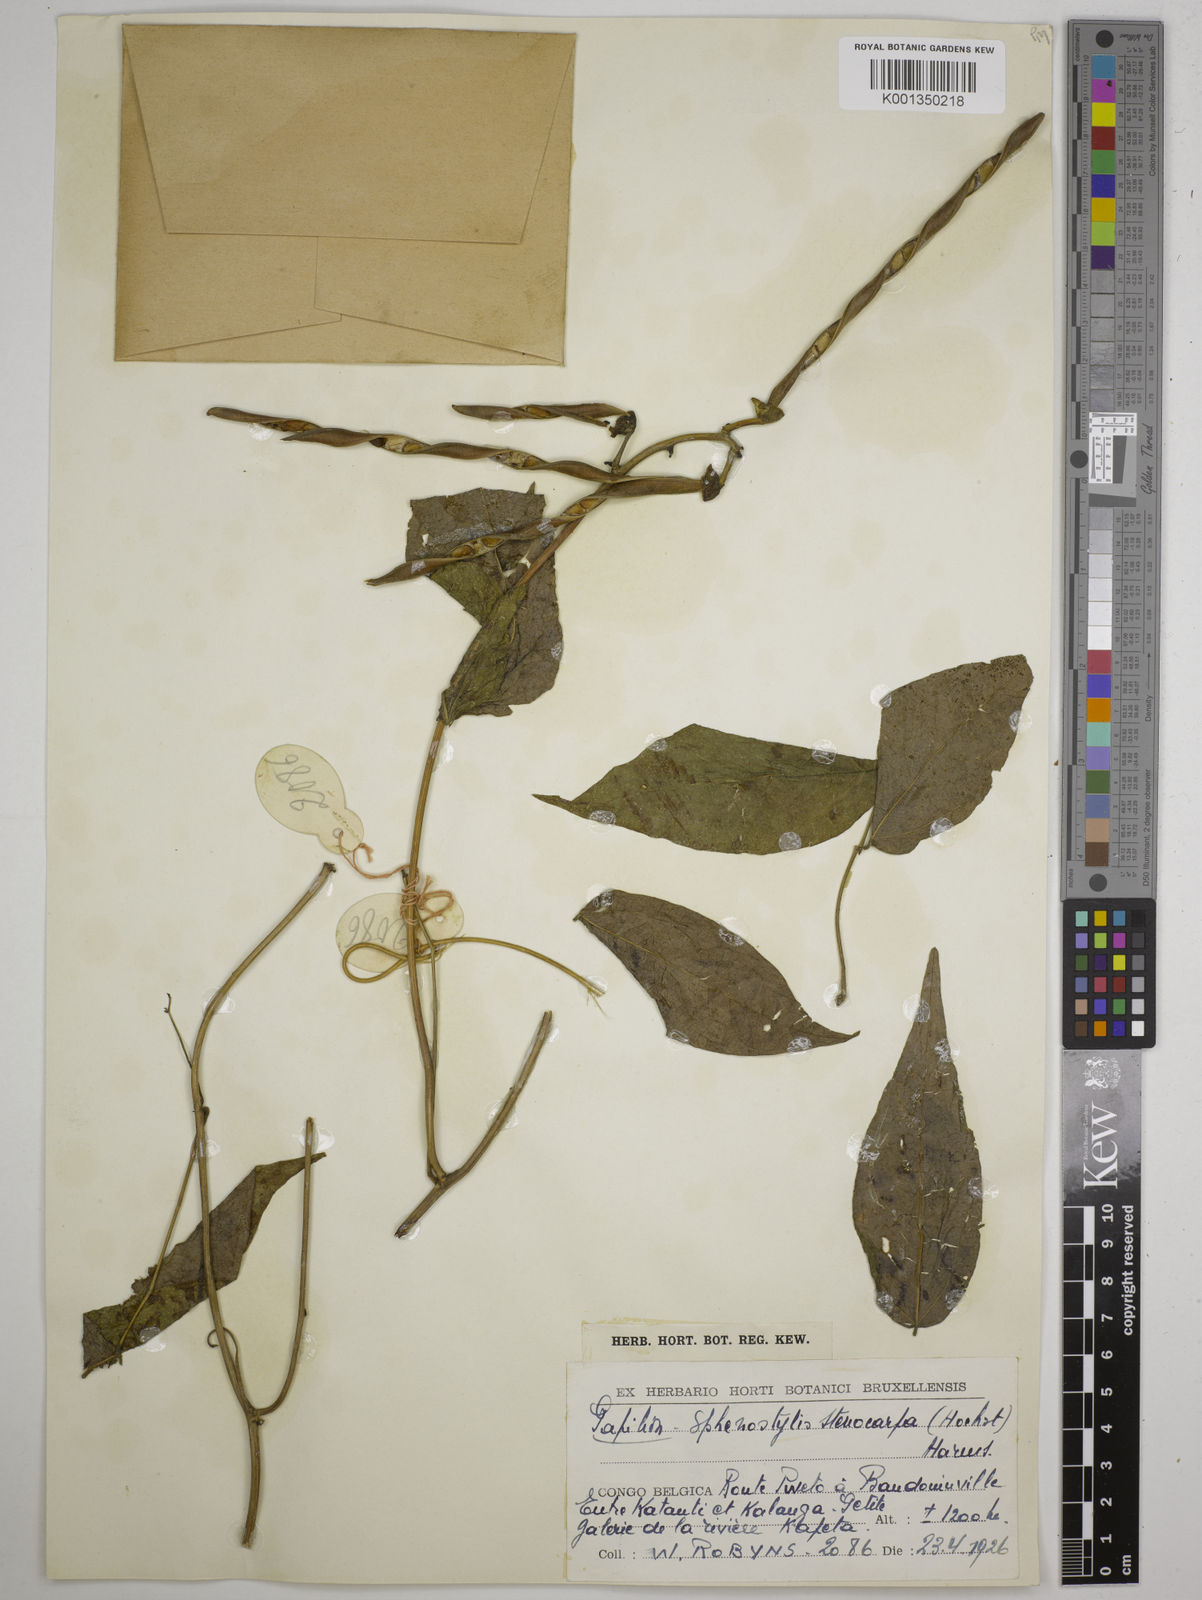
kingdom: Plantae
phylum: Tracheophyta
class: Magnoliopsida
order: Fabales
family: Fabaceae
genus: Sphenostylis
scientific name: Sphenostylis stenocarpa
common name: Yam-pea
